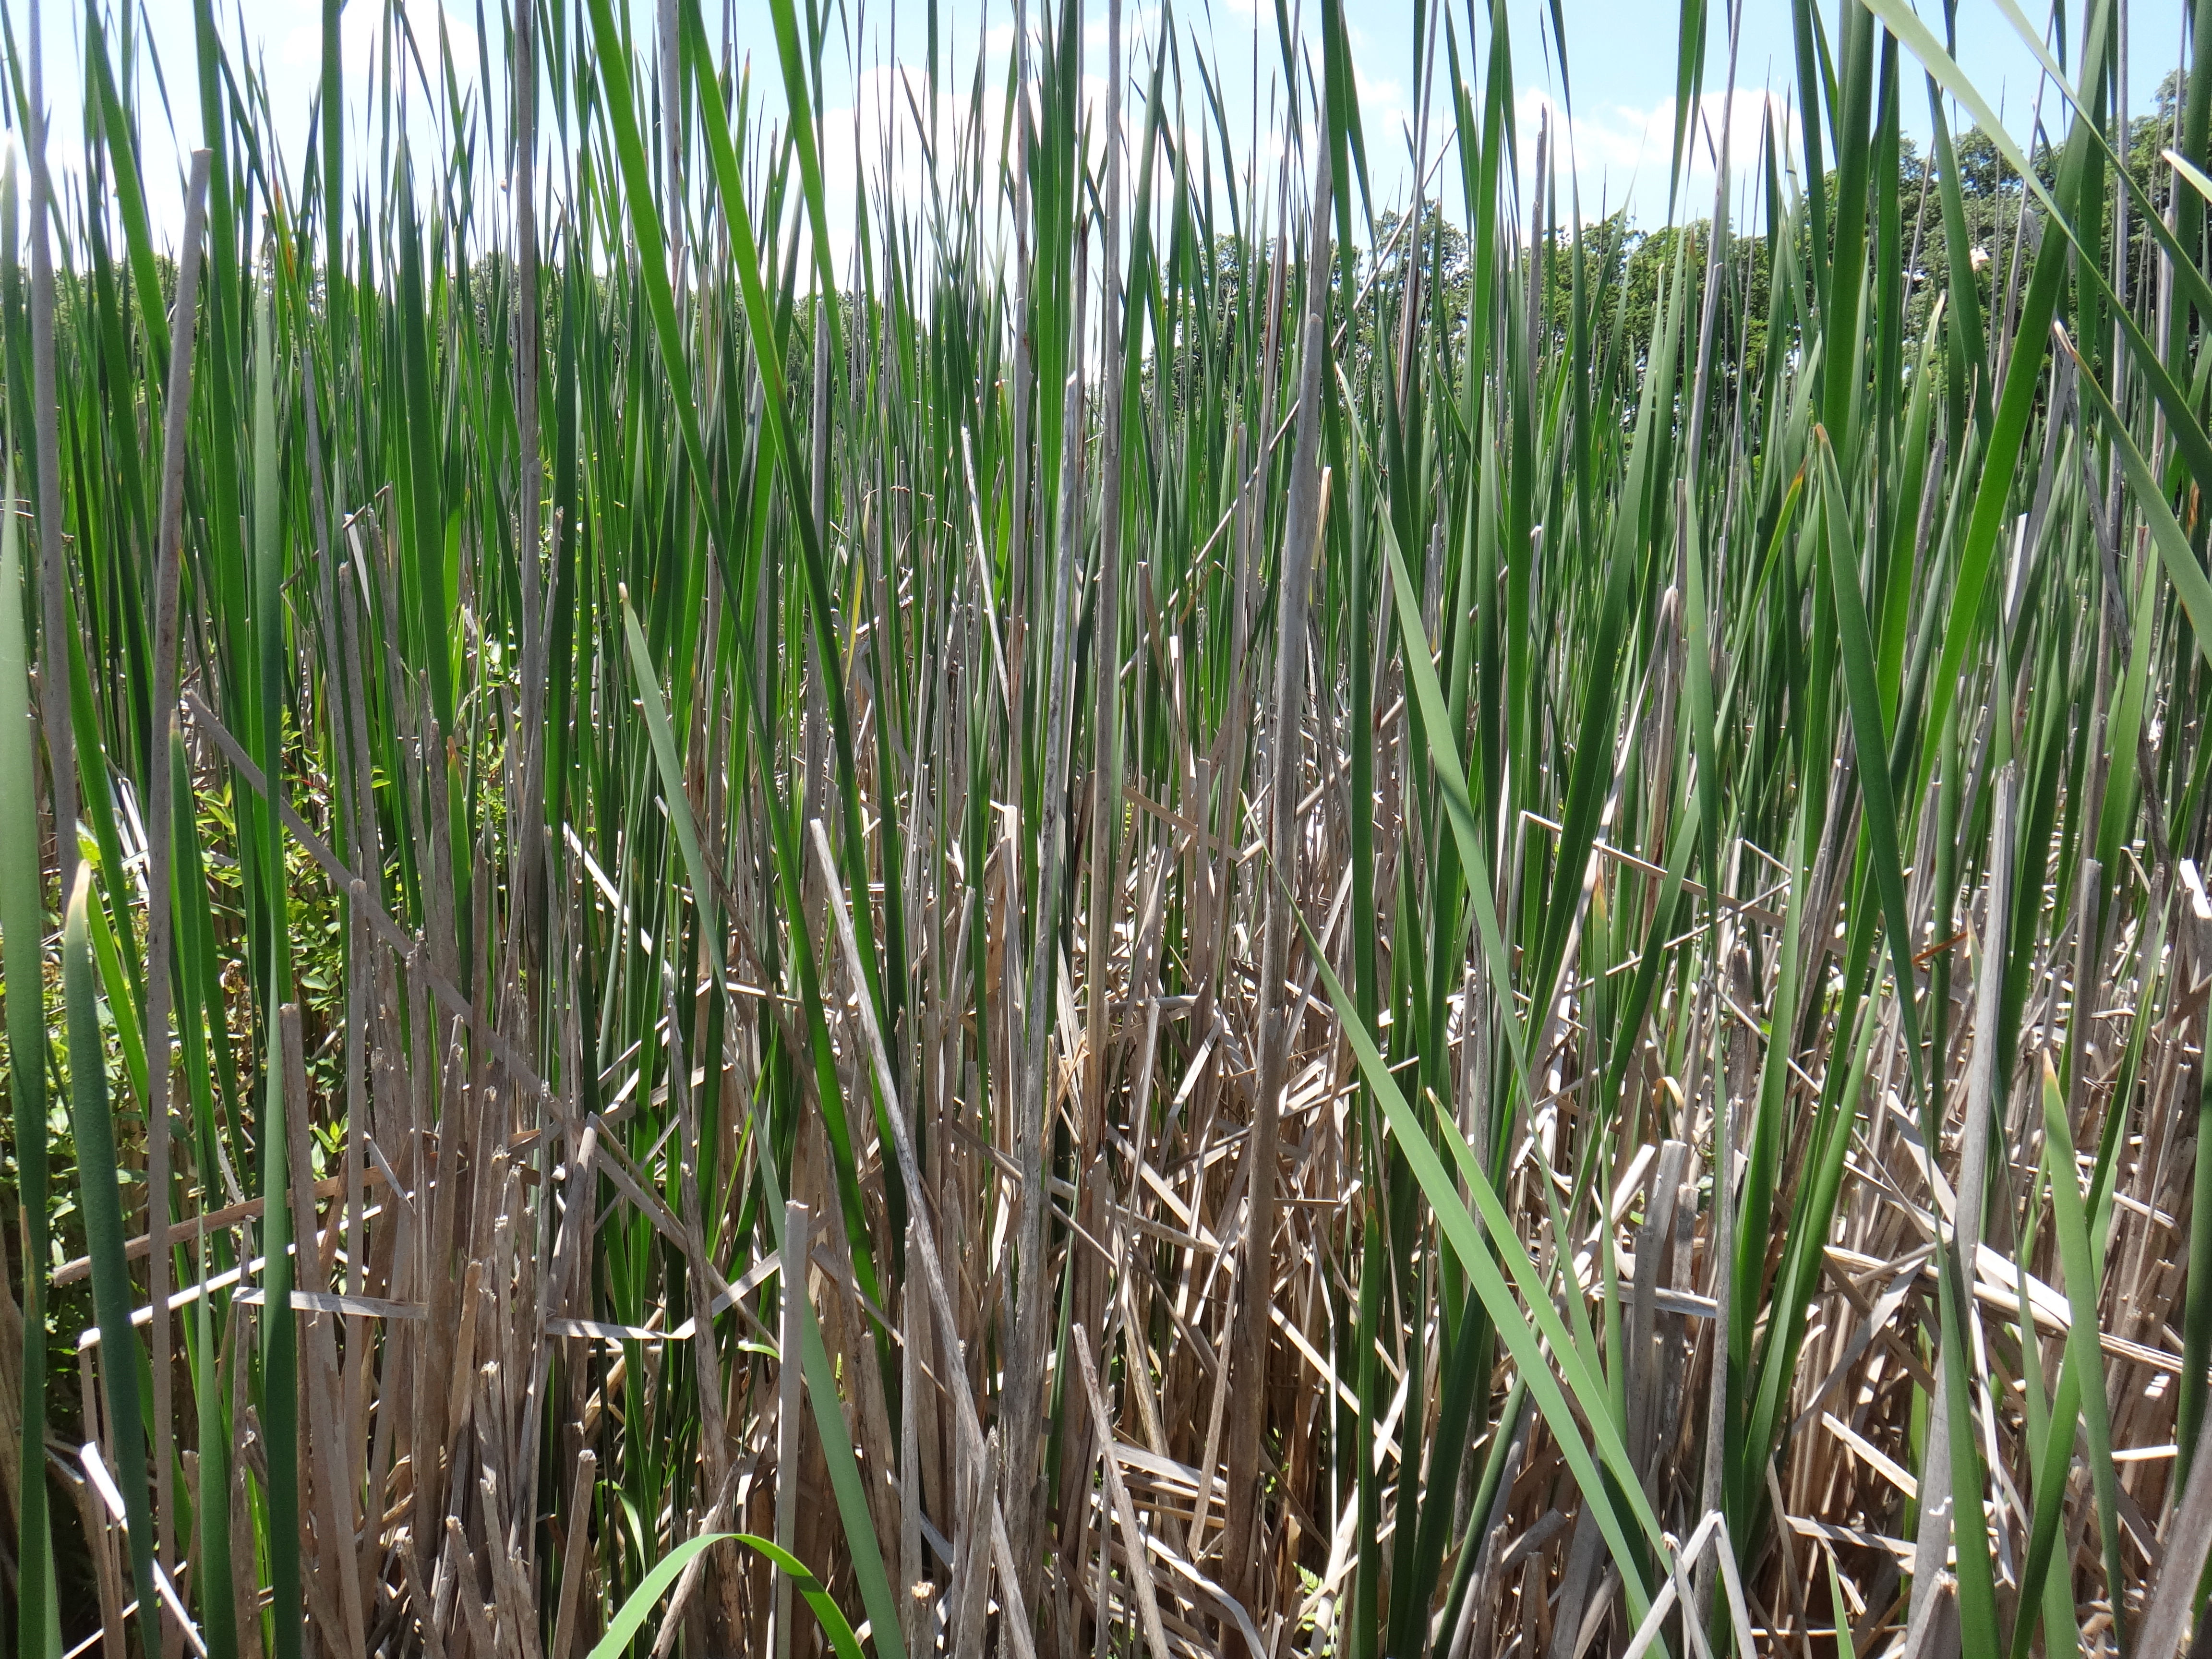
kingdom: Plantae
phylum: Tracheophyta
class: Liliopsida
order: Poales
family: Cyperaceae
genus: Carex
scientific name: Carex lasiocarpa
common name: Slender sedge
